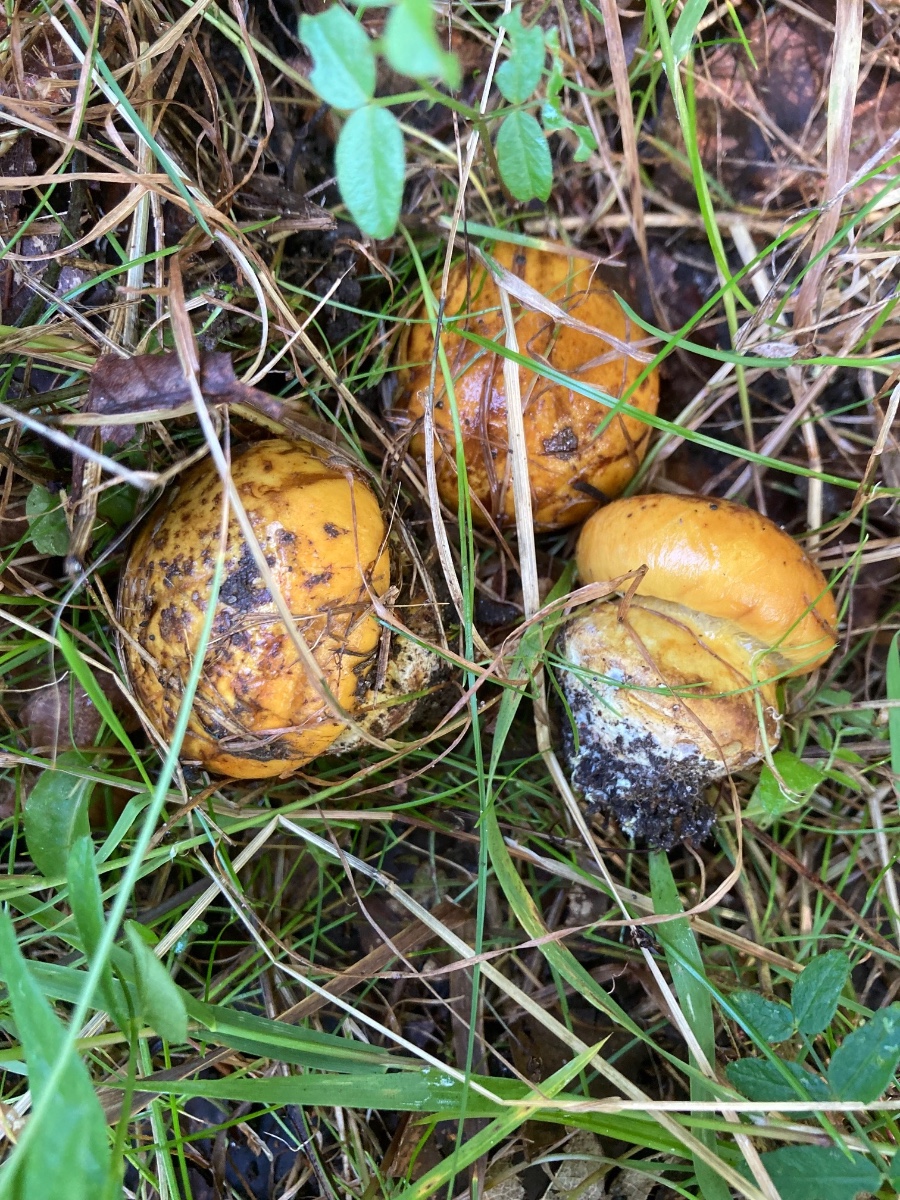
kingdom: Fungi
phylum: Basidiomycota
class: Agaricomycetes
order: Agaricales
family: Cortinariaceae
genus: Calonarius
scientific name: Calonarius alcalinophilus
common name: gyldenbrun slørhat
